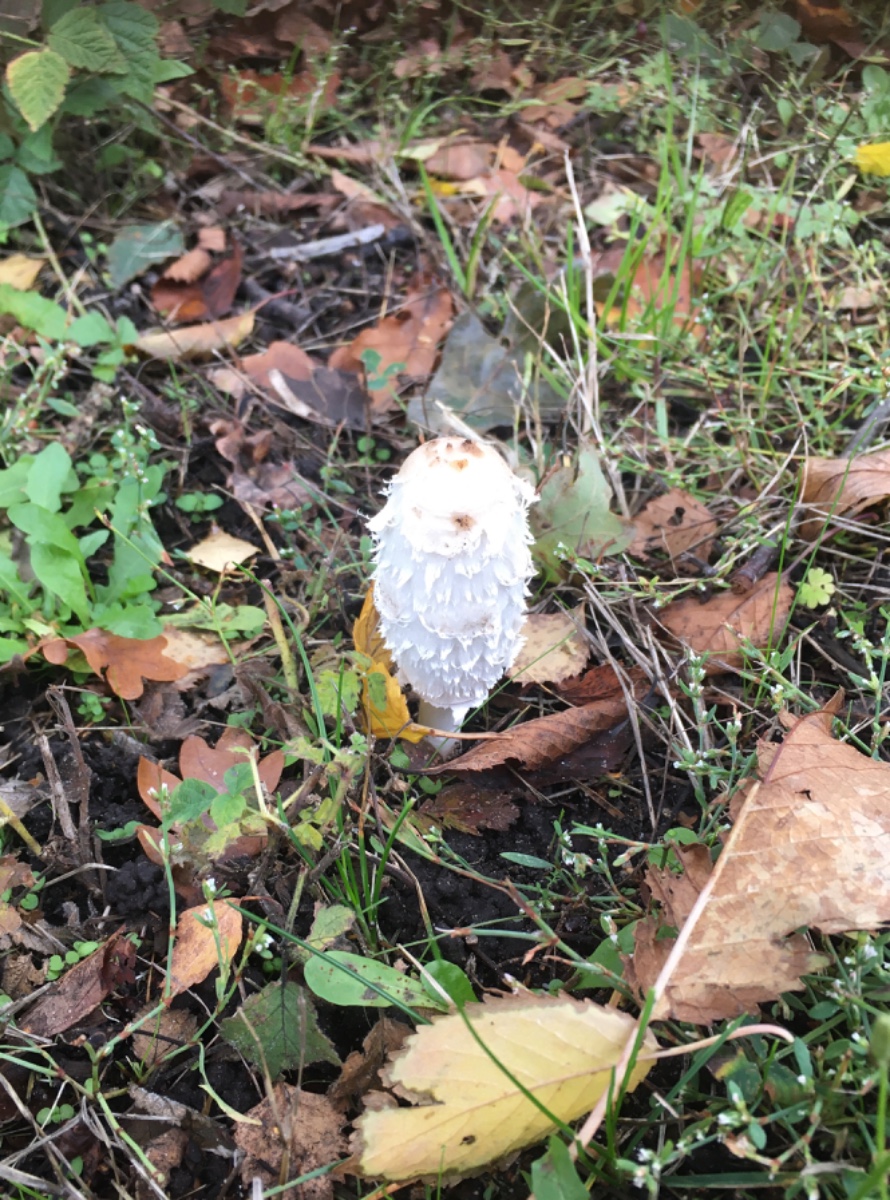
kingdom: Fungi
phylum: Basidiomycota
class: Agaricomycetes
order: Agaricales
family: Agaricaceae
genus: Coprinus
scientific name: Coprinus comatus
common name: stor parykhat
